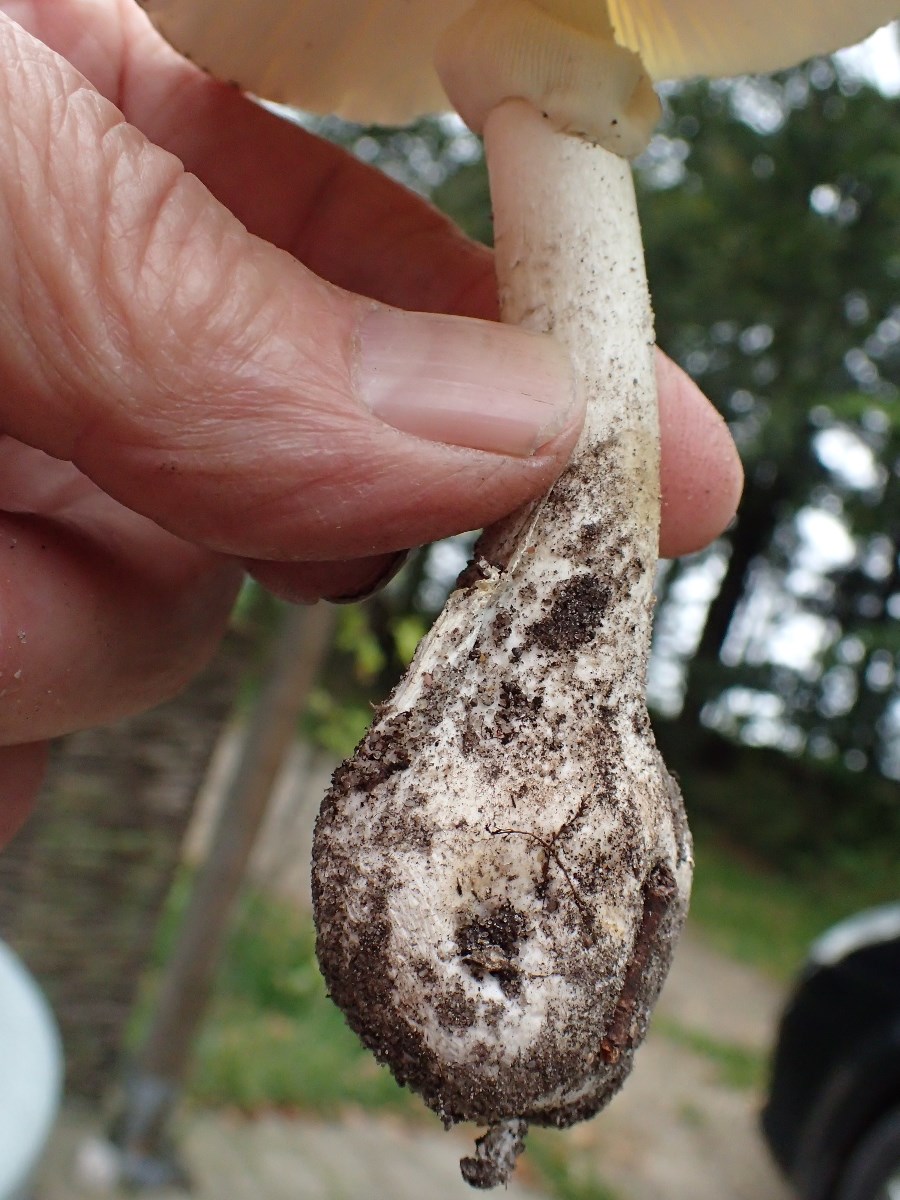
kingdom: Fungi
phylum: Basidiomycota
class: Agaricomycetes
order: Agaricales
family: Amanitaceae
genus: Amanita
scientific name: Amanita phalloides
